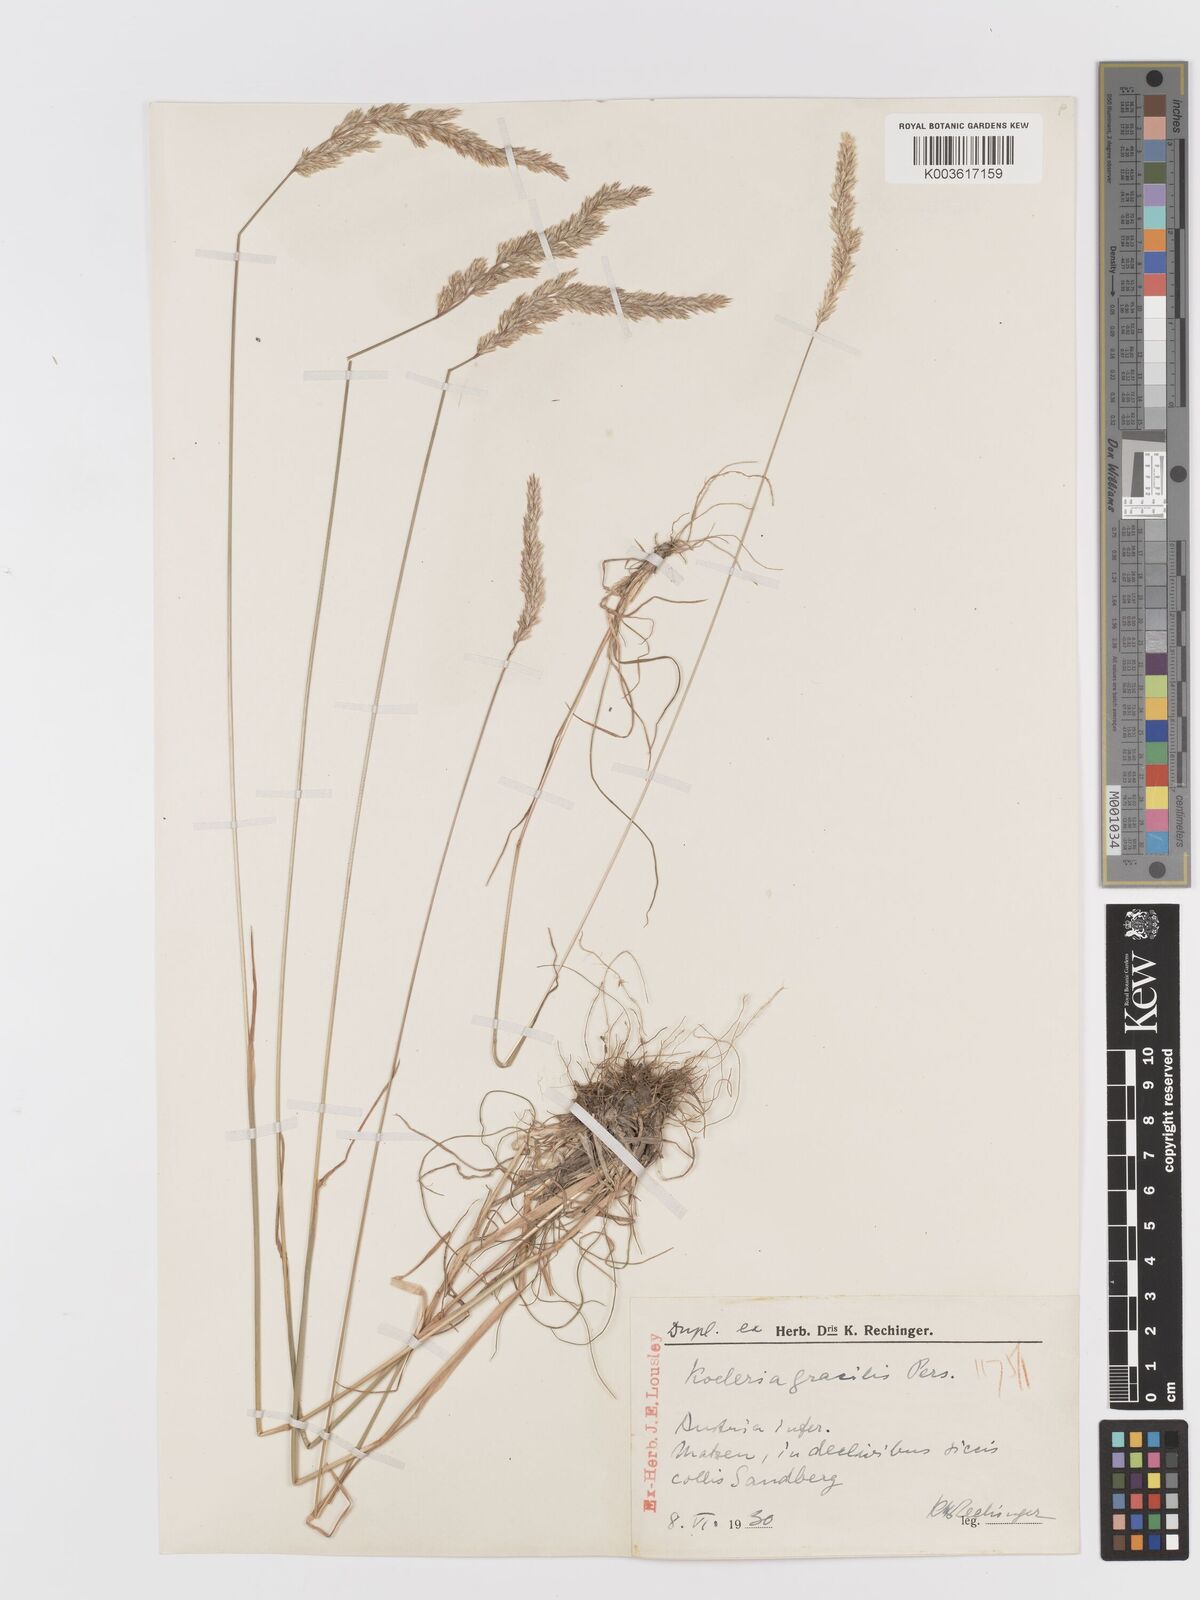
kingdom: Plantae
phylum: Tracheophyta
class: Liliopsida
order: Poales
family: Poaceae
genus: Koeleria
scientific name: Koeleria macrantha
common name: Crested hair-grass
